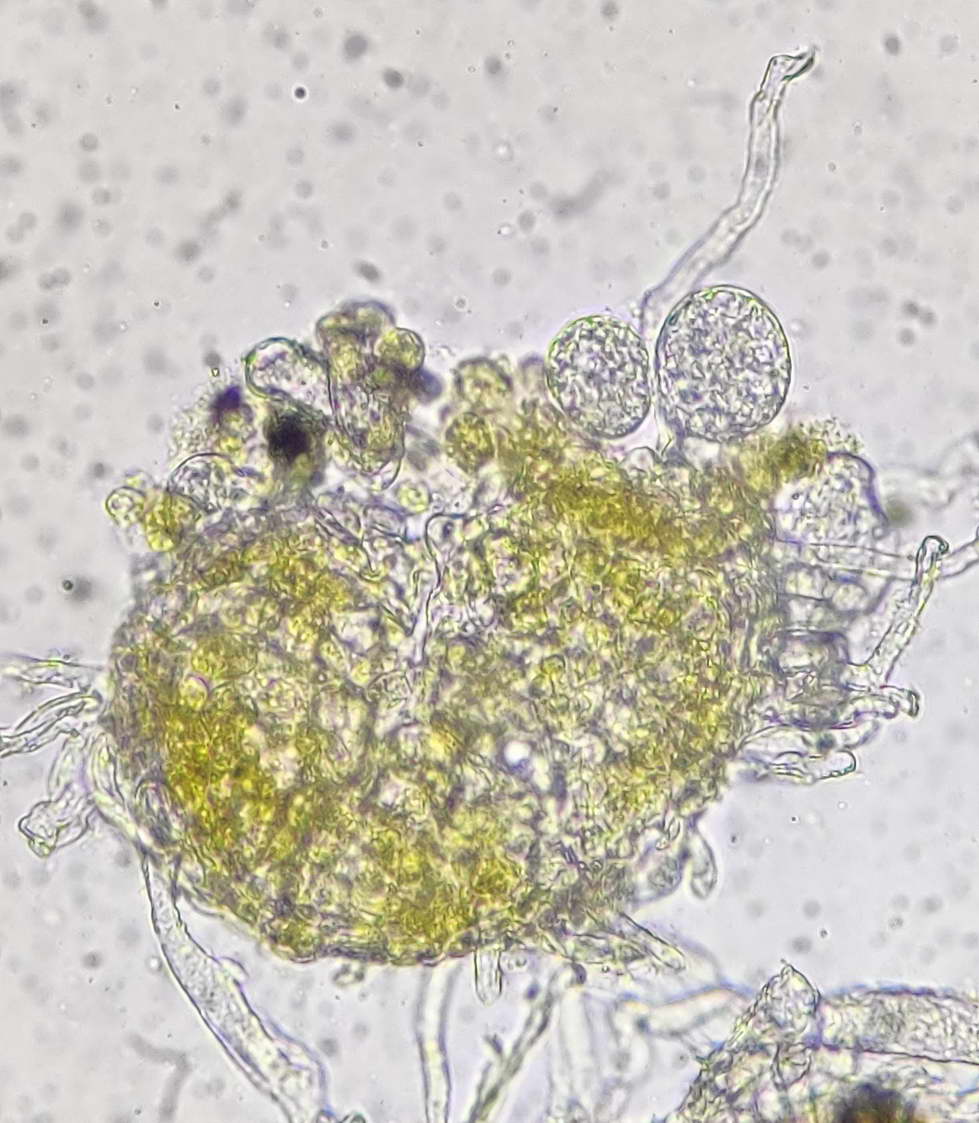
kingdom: Fungi
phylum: Ascomycota
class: Leotiomycetes
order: Helotiales
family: Erysiphaceae
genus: Erysiphe
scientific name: Erysiphe convolvuli
